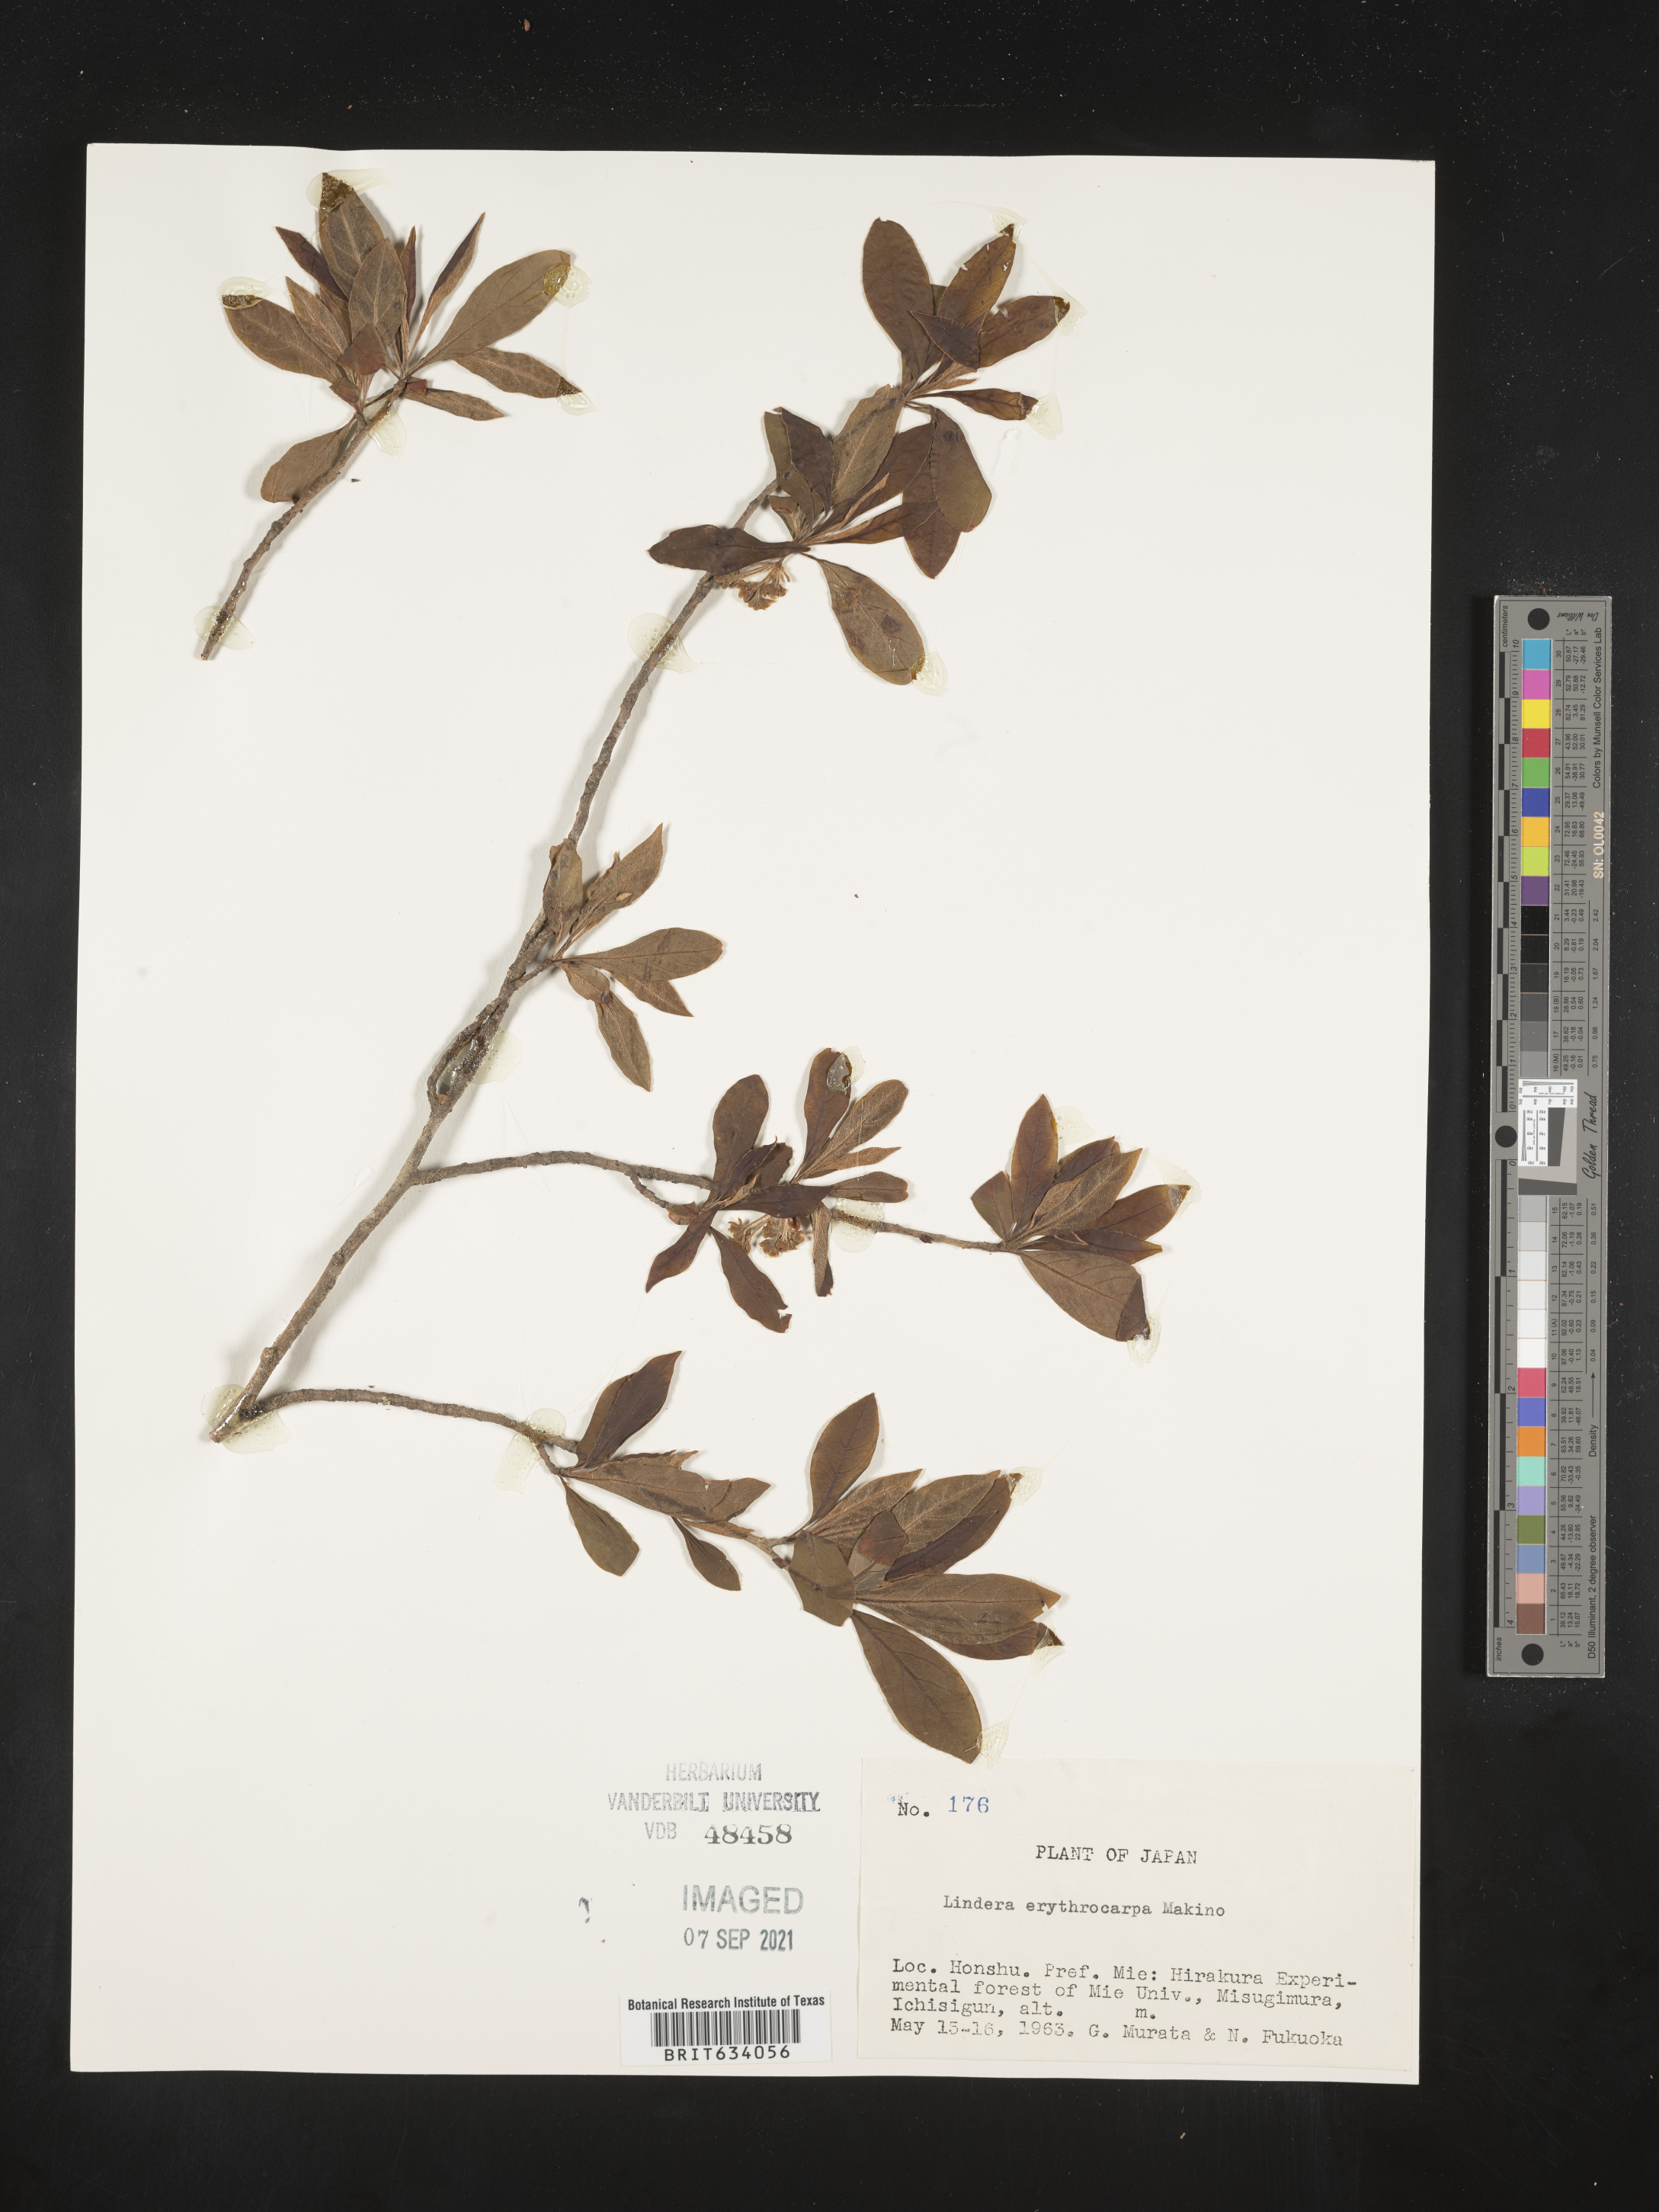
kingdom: Plantae
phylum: Tracheophyta
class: Magnoliopsida
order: Laurales
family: Lauraceae
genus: Lindera
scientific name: Lindera
